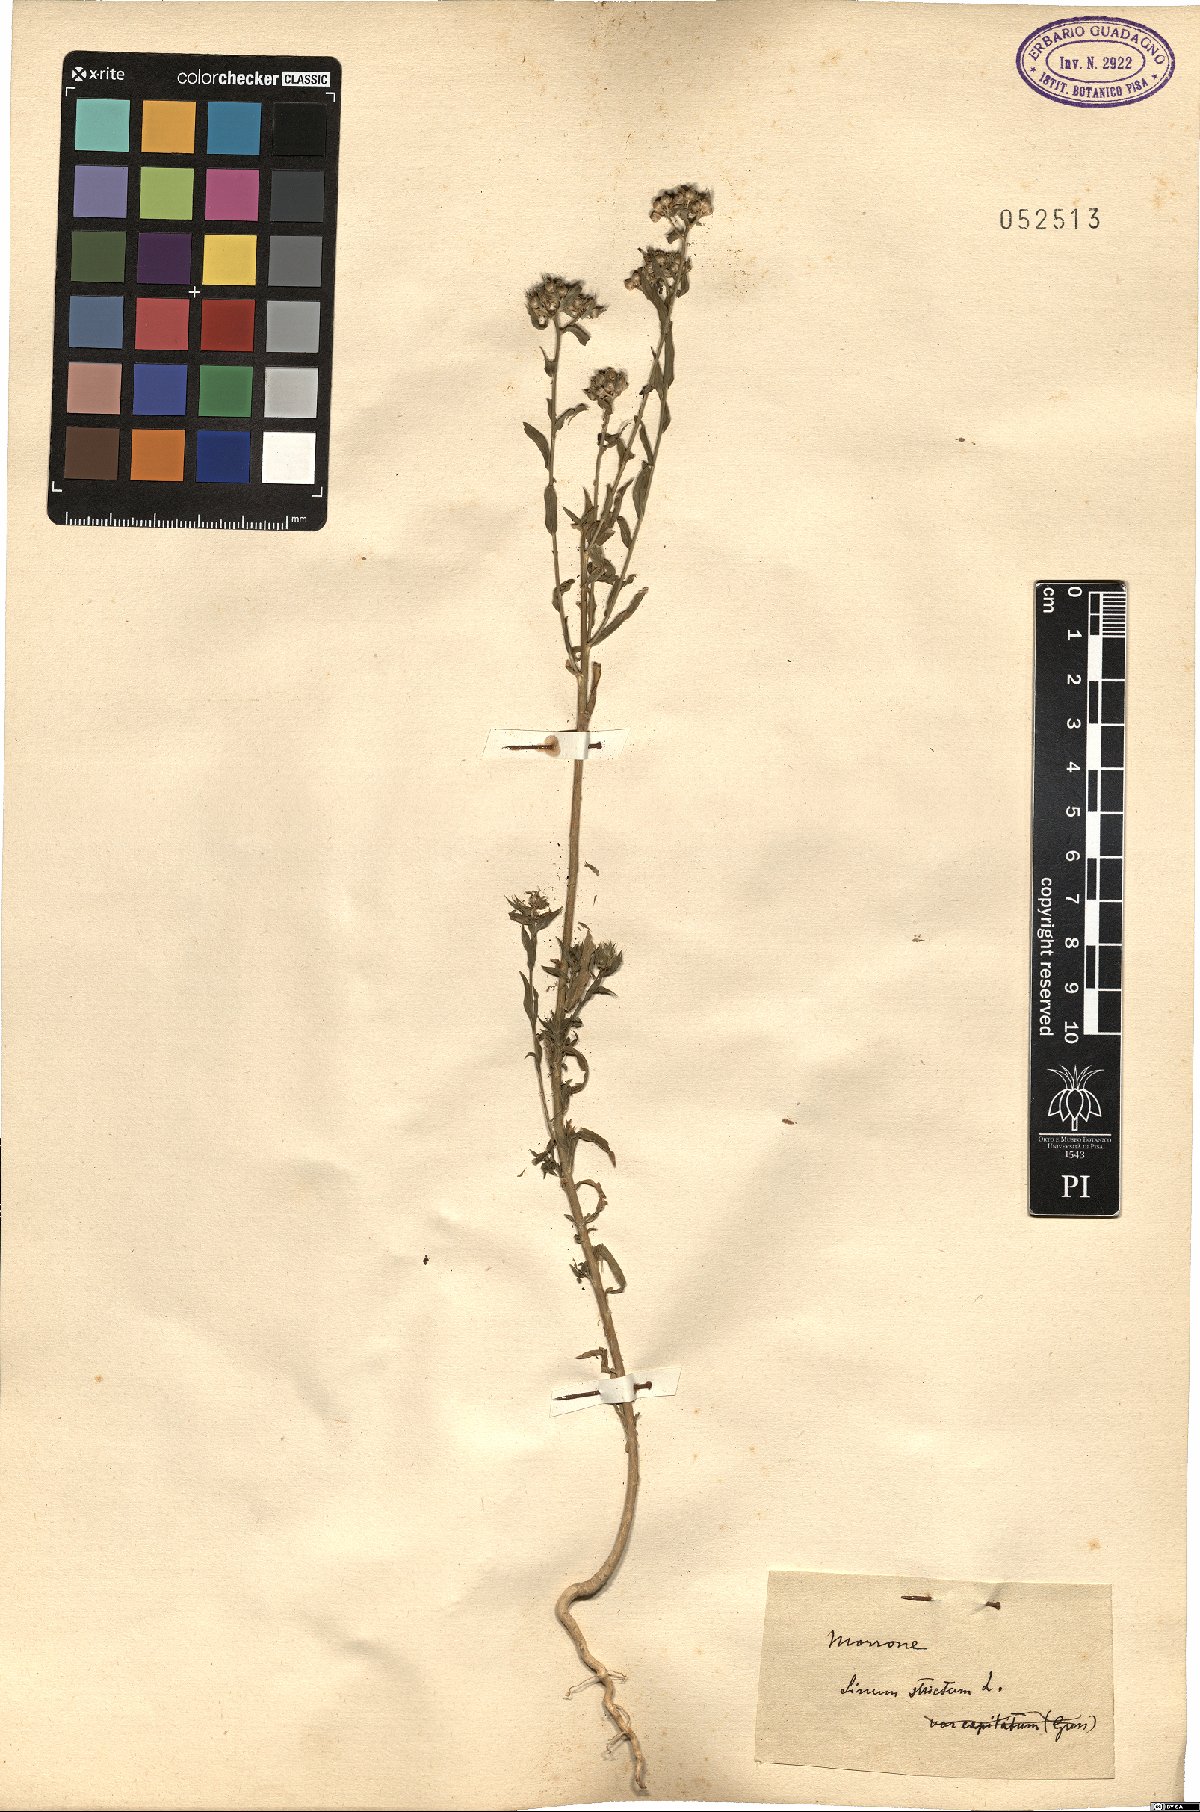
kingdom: Plantae
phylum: Tracheophyta
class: Magnoliopsida
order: Malpighiales
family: Linaceae
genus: Linum
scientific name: Linum strictum
